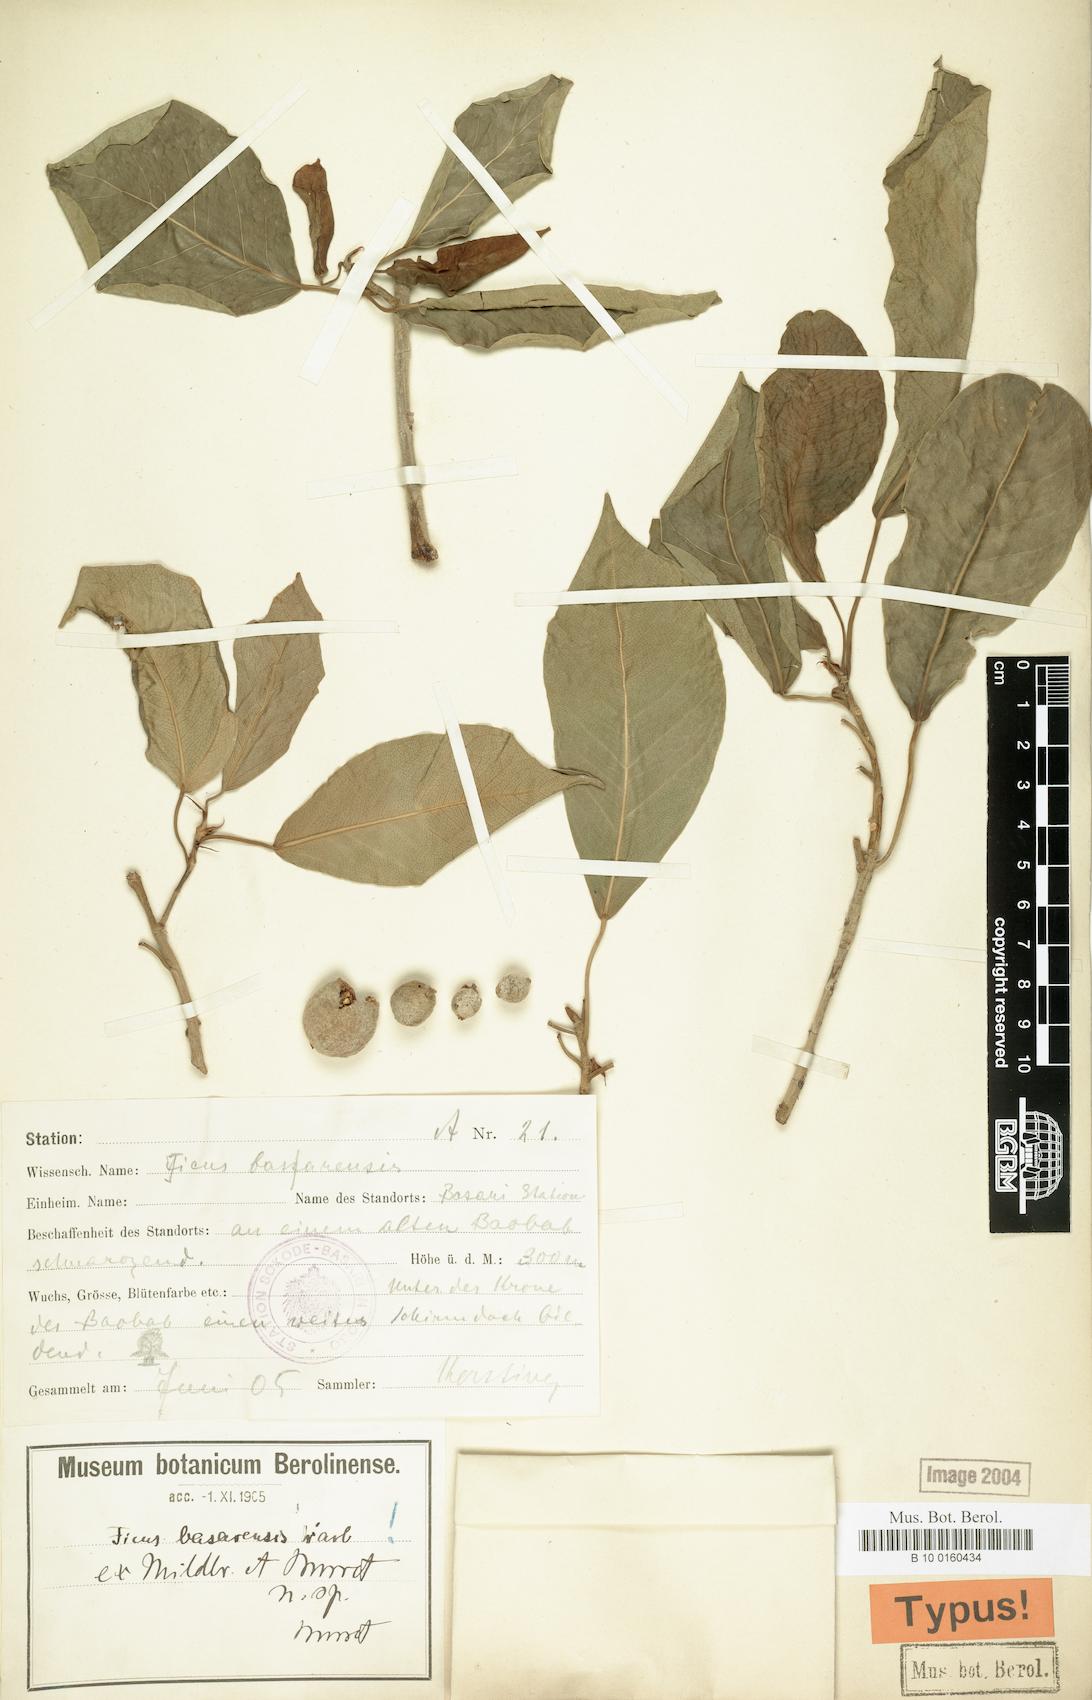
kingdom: Plantae
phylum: Tracheophyta
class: Magnoliopsida
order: Rosales
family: Moraceae
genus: Ficus
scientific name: Ficus thonningii
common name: Fig
